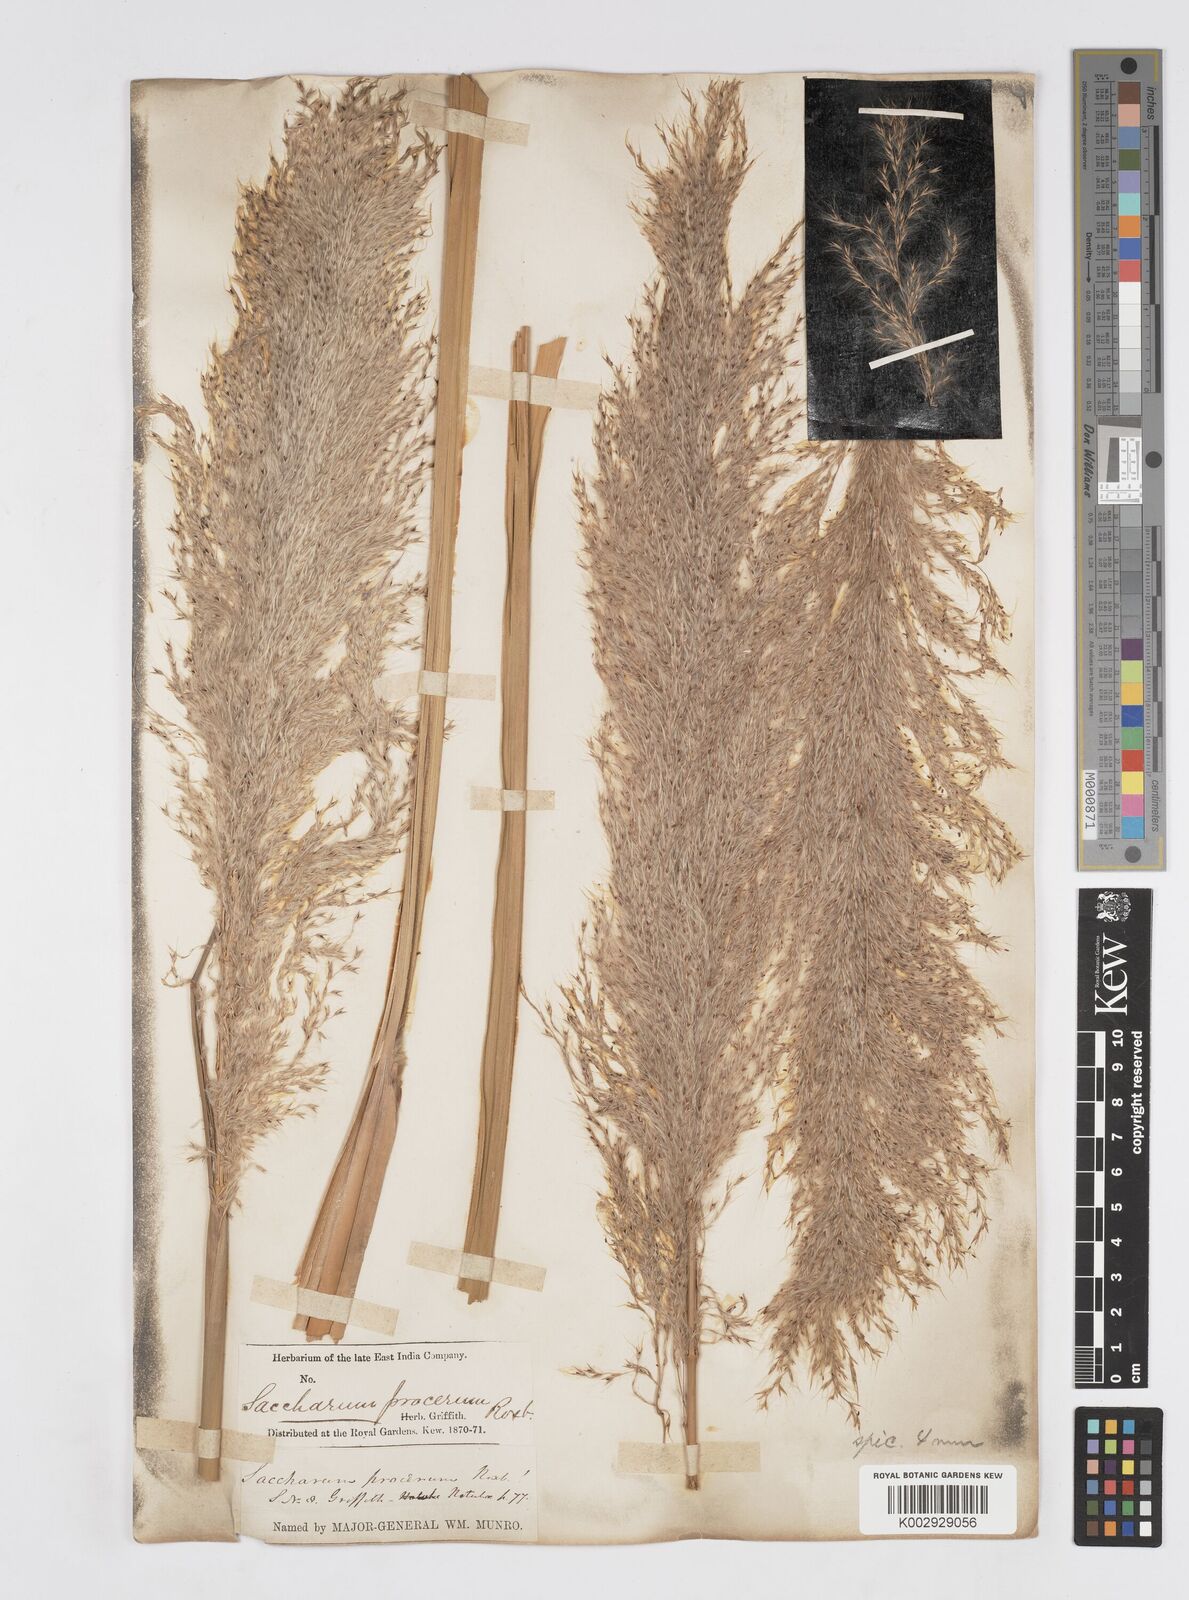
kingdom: Plantae
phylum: Tracheophyta
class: Liliopsida
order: Poales
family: Poaceae
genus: Tripidium
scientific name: Tripidium procerum
